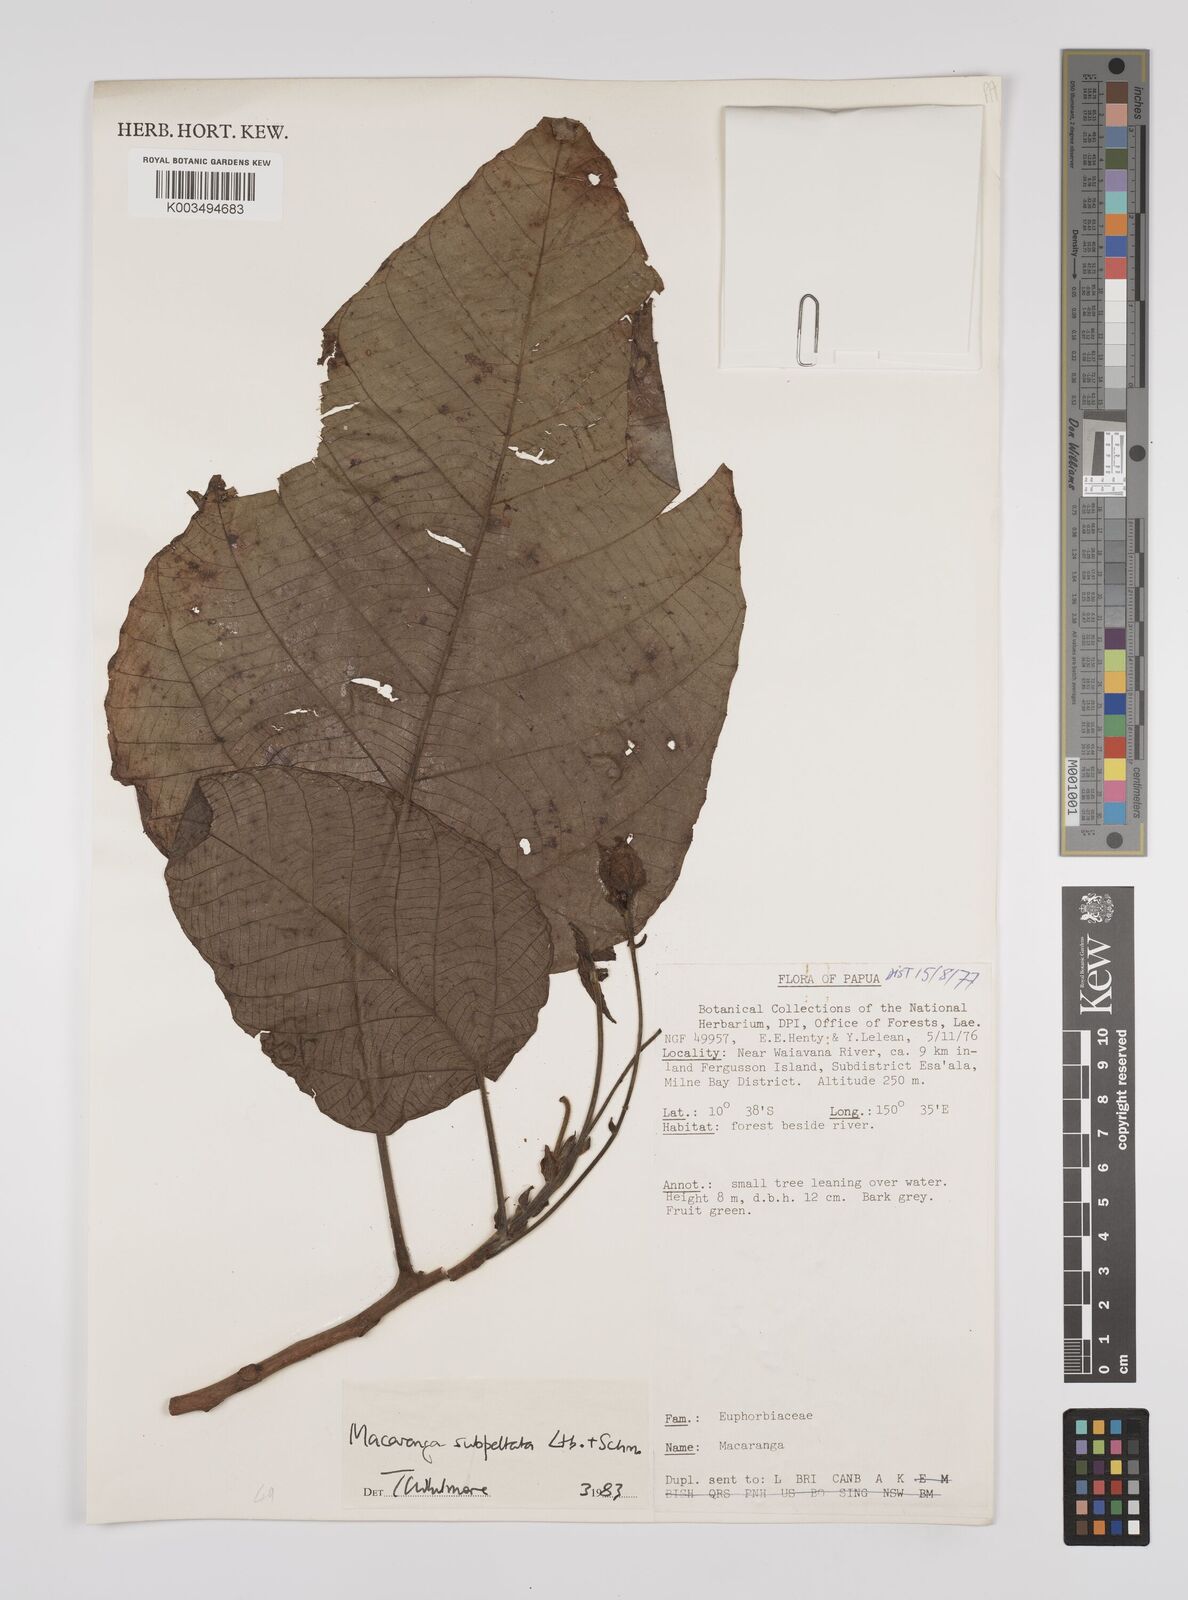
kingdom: Plantae
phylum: Tracheophyta
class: Magnoliopsida
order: Malpighiales
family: Euphorbiaceae
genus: Macaranga
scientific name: Macaranga subpeltata
